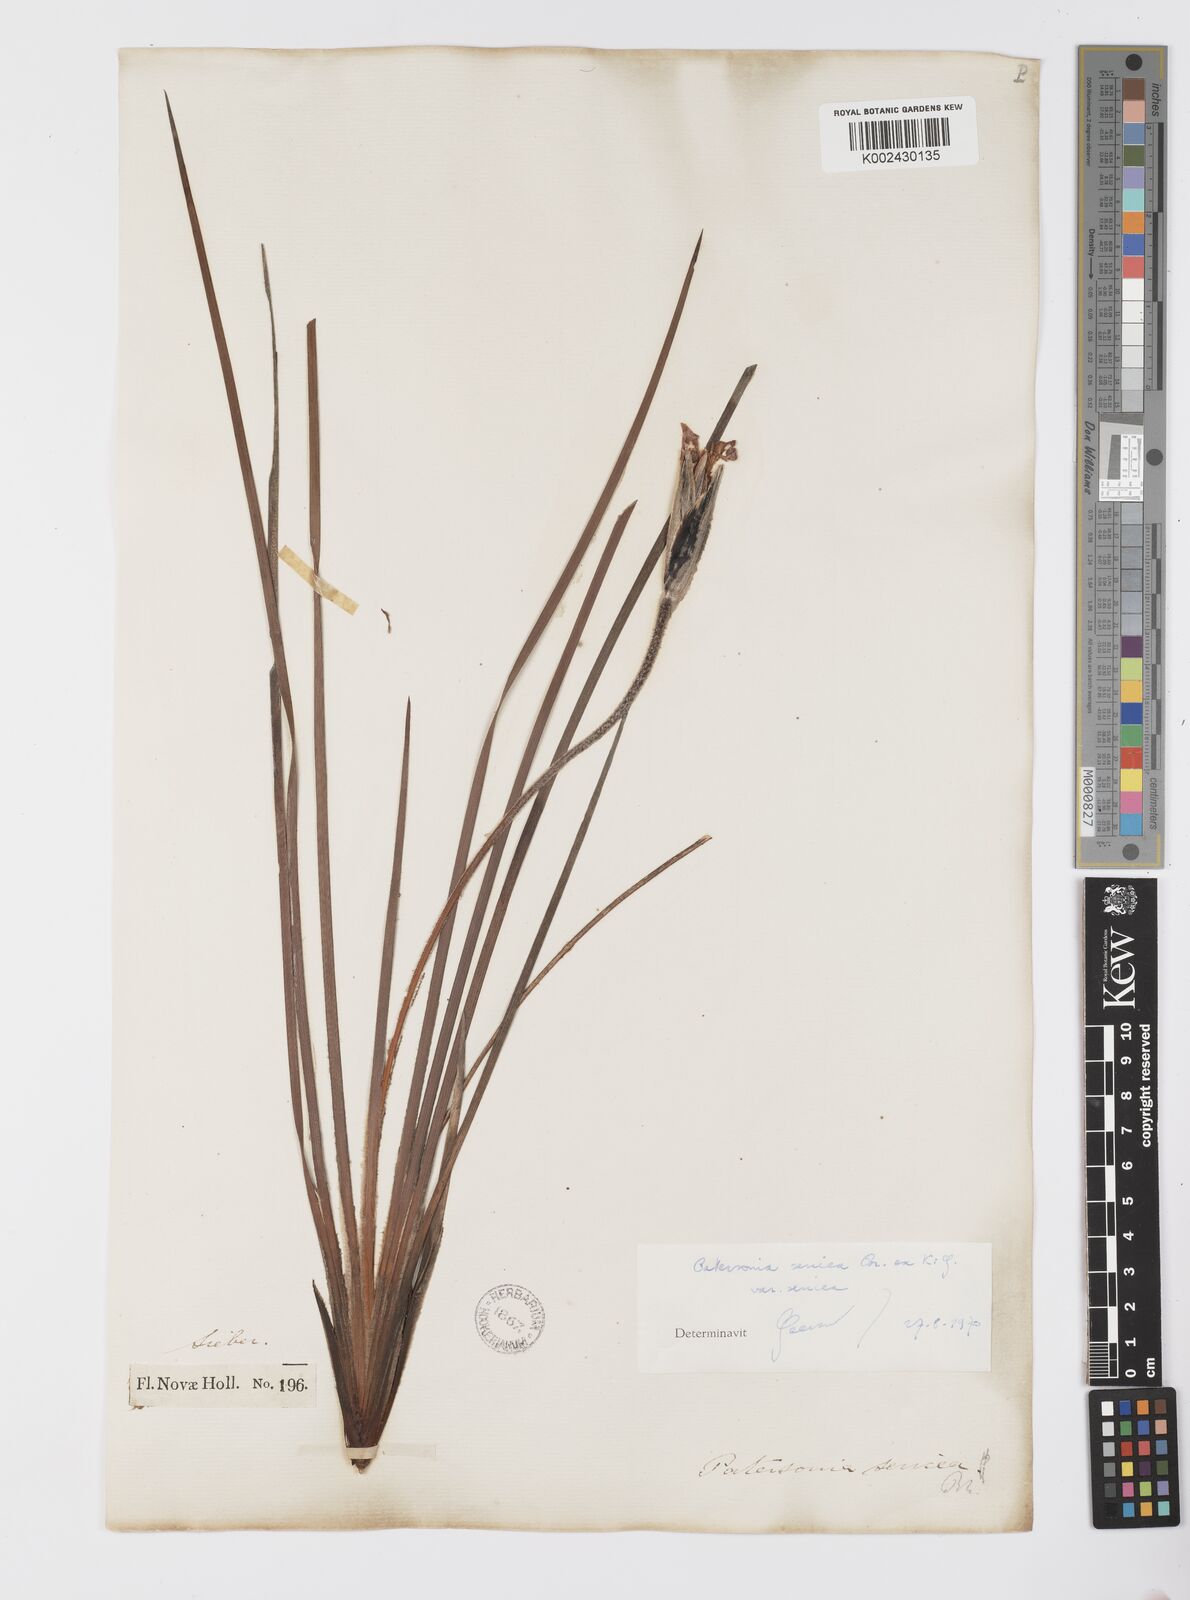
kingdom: Plantae
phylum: Tracheophyta
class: Liliopsida
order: Asparagales
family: Iridaceae
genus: Patersonia
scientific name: Patersonia sericea
